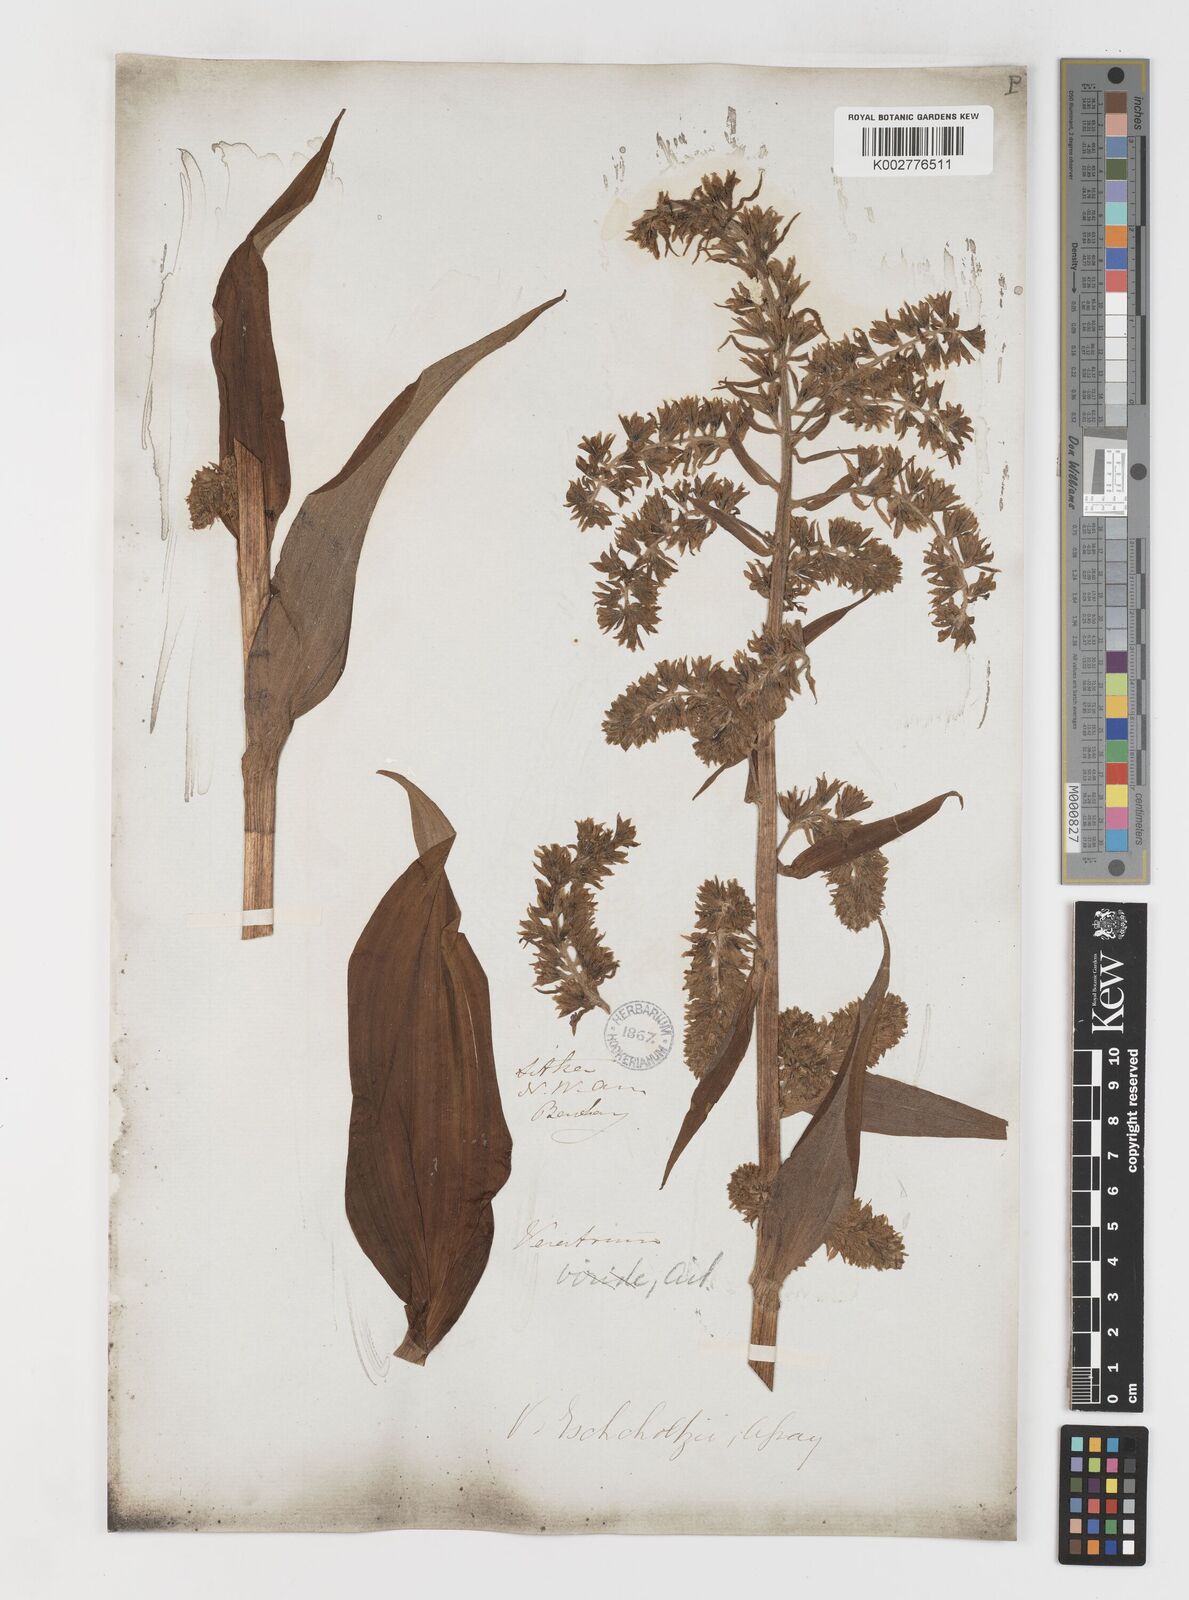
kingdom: Plantae
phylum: Tracheophyta
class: Liliopsida
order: Liliales
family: Melanthiaceae
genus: Veratrum
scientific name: Veratrum viride
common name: American false hellebore
